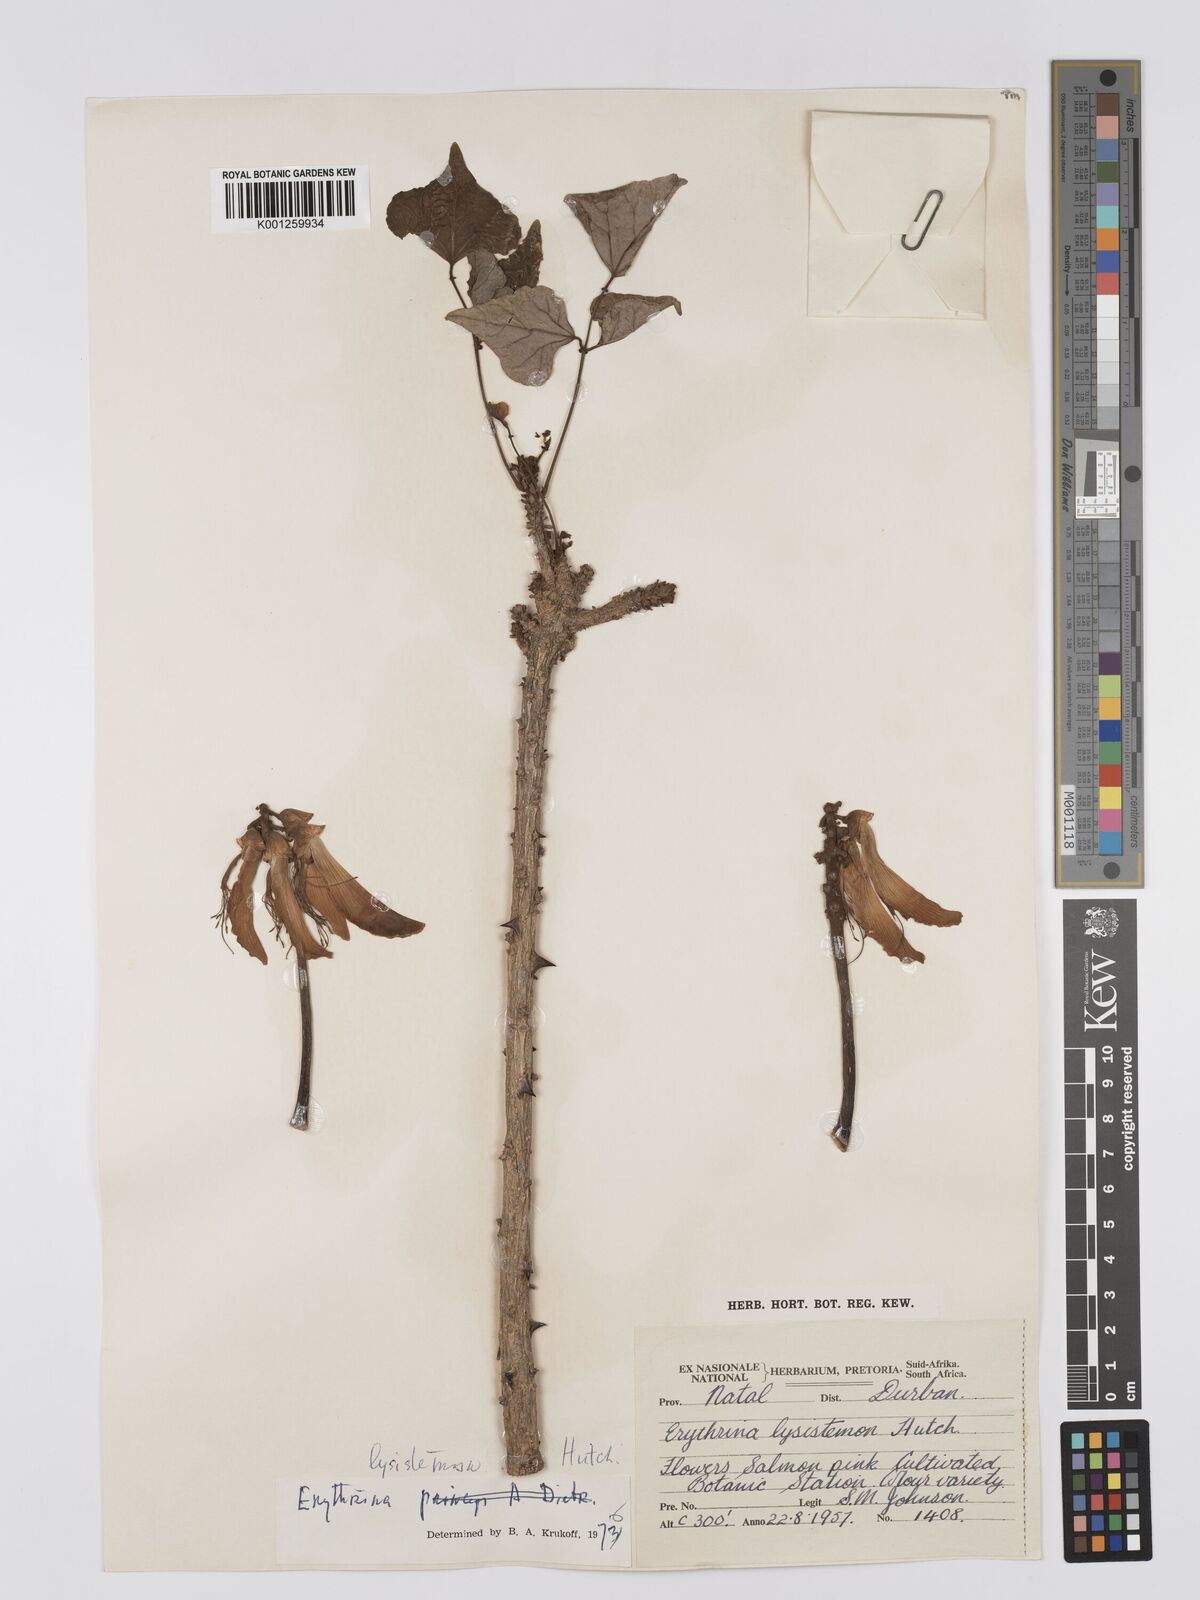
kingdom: Plantae
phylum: Tracheophyta
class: Magnoliopsida
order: Fabales
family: Fabaceae
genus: Erythrina
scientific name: Erythrina lysistemon
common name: Common coral tree
